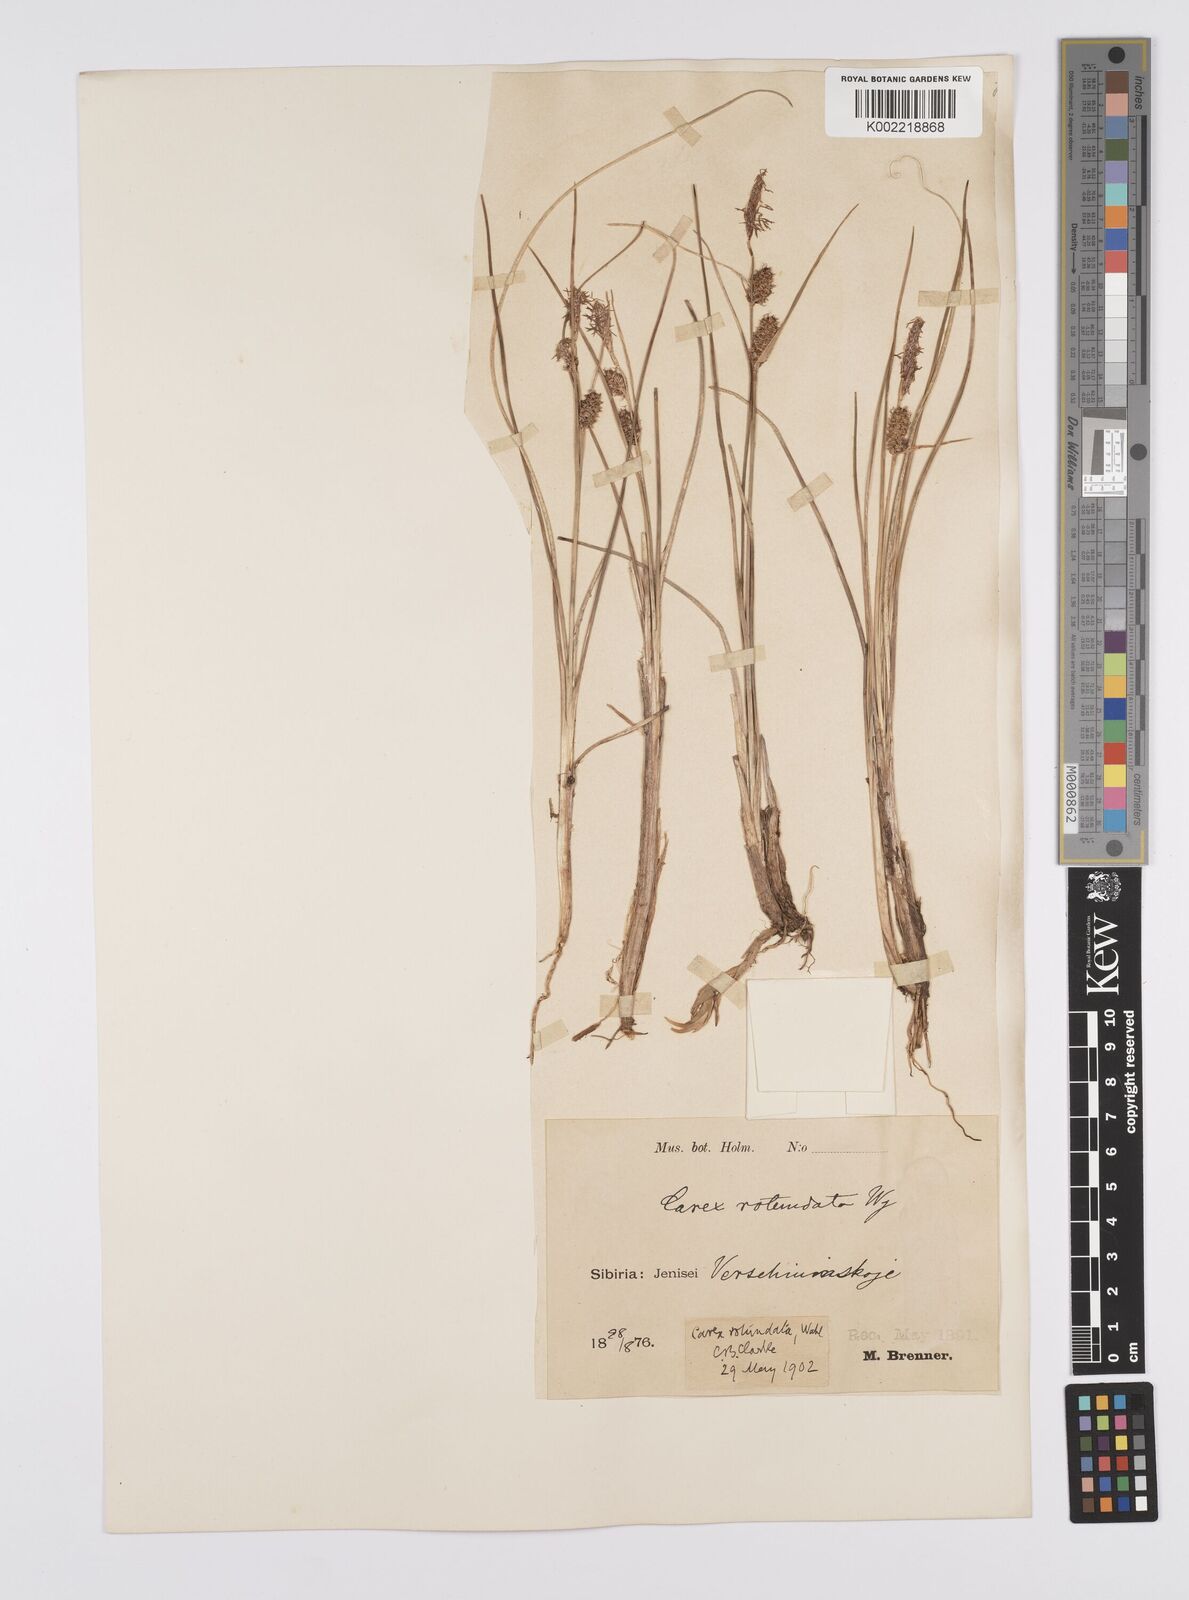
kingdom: Plantae
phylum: Tracheophyta
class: Liliopsida
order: Poales
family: Cyperaceae
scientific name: Cyperaceae
